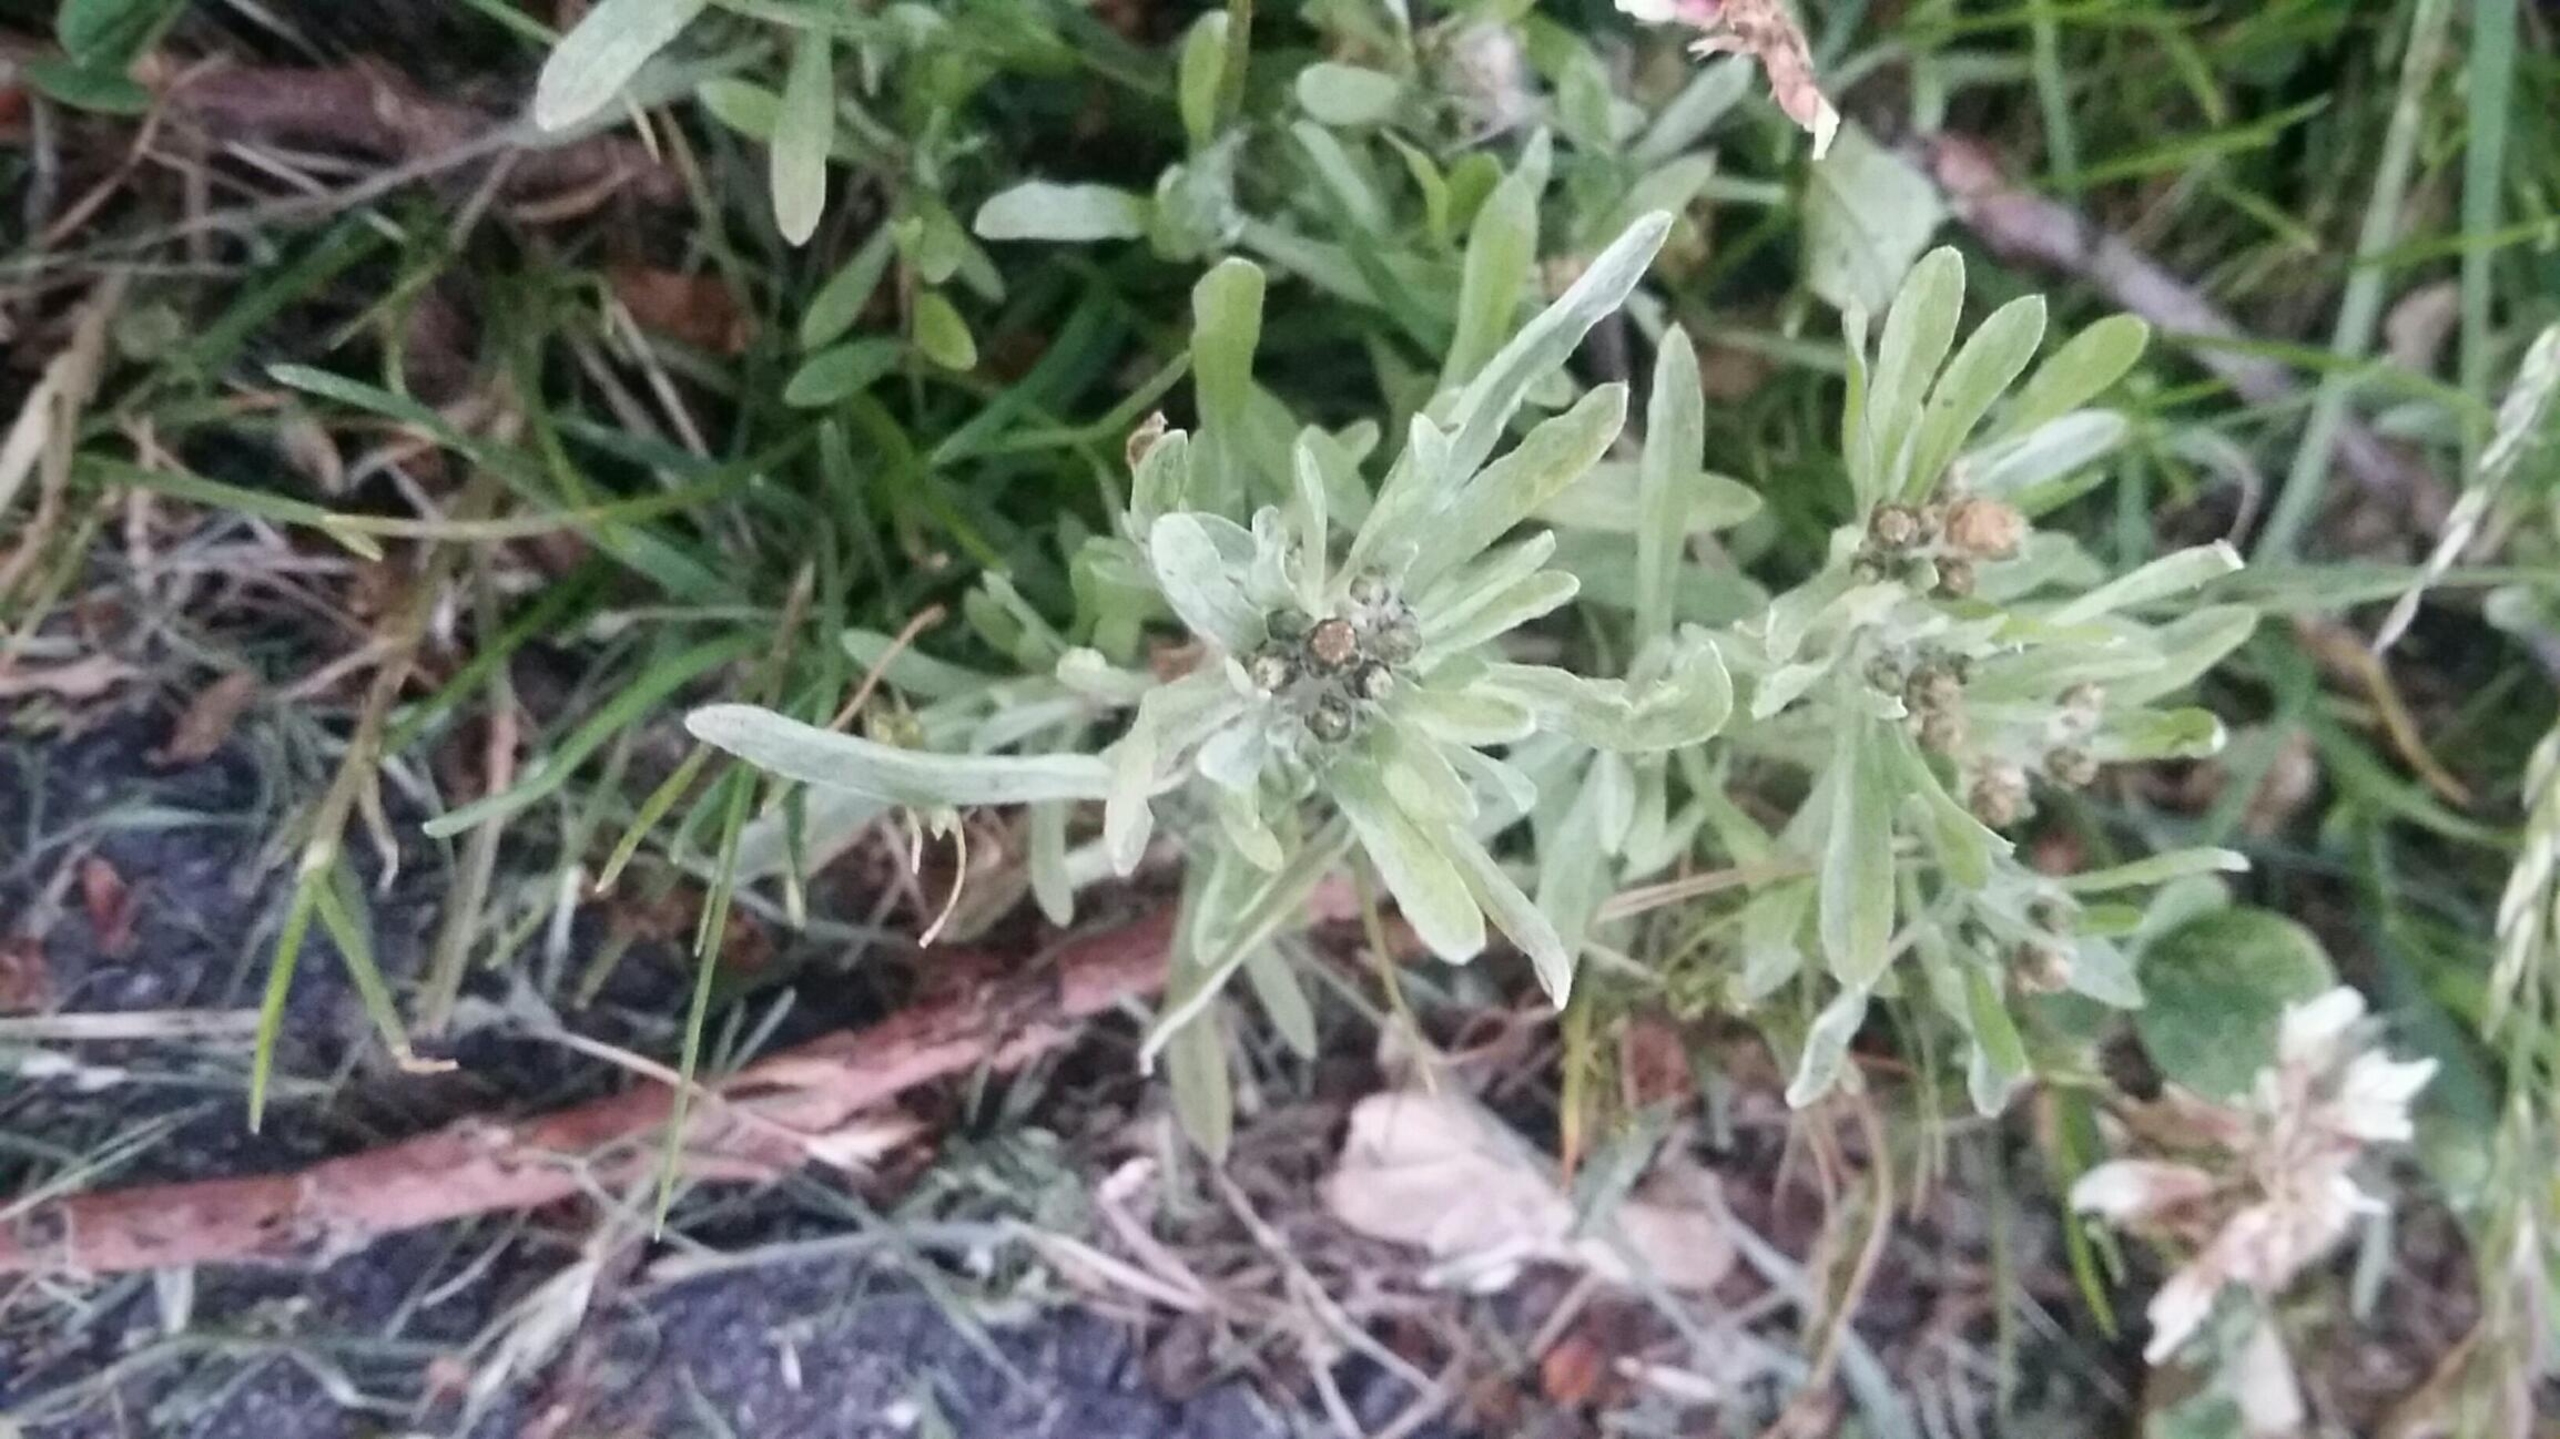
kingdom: Plantae
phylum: Tracheophyta
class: Magnoliopsida
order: Asterales
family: Asteraceae
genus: Gnaphalium
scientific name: Gnaphalium uliginosum
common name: Sump-evighedsblomst
